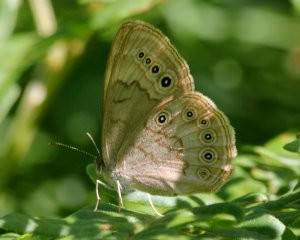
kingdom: Animalia
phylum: Arthropoda
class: Insecta
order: Lepidoptera
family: Nymphalidae
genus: Lethe
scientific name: Lethe eurydice
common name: Eyed Brown
